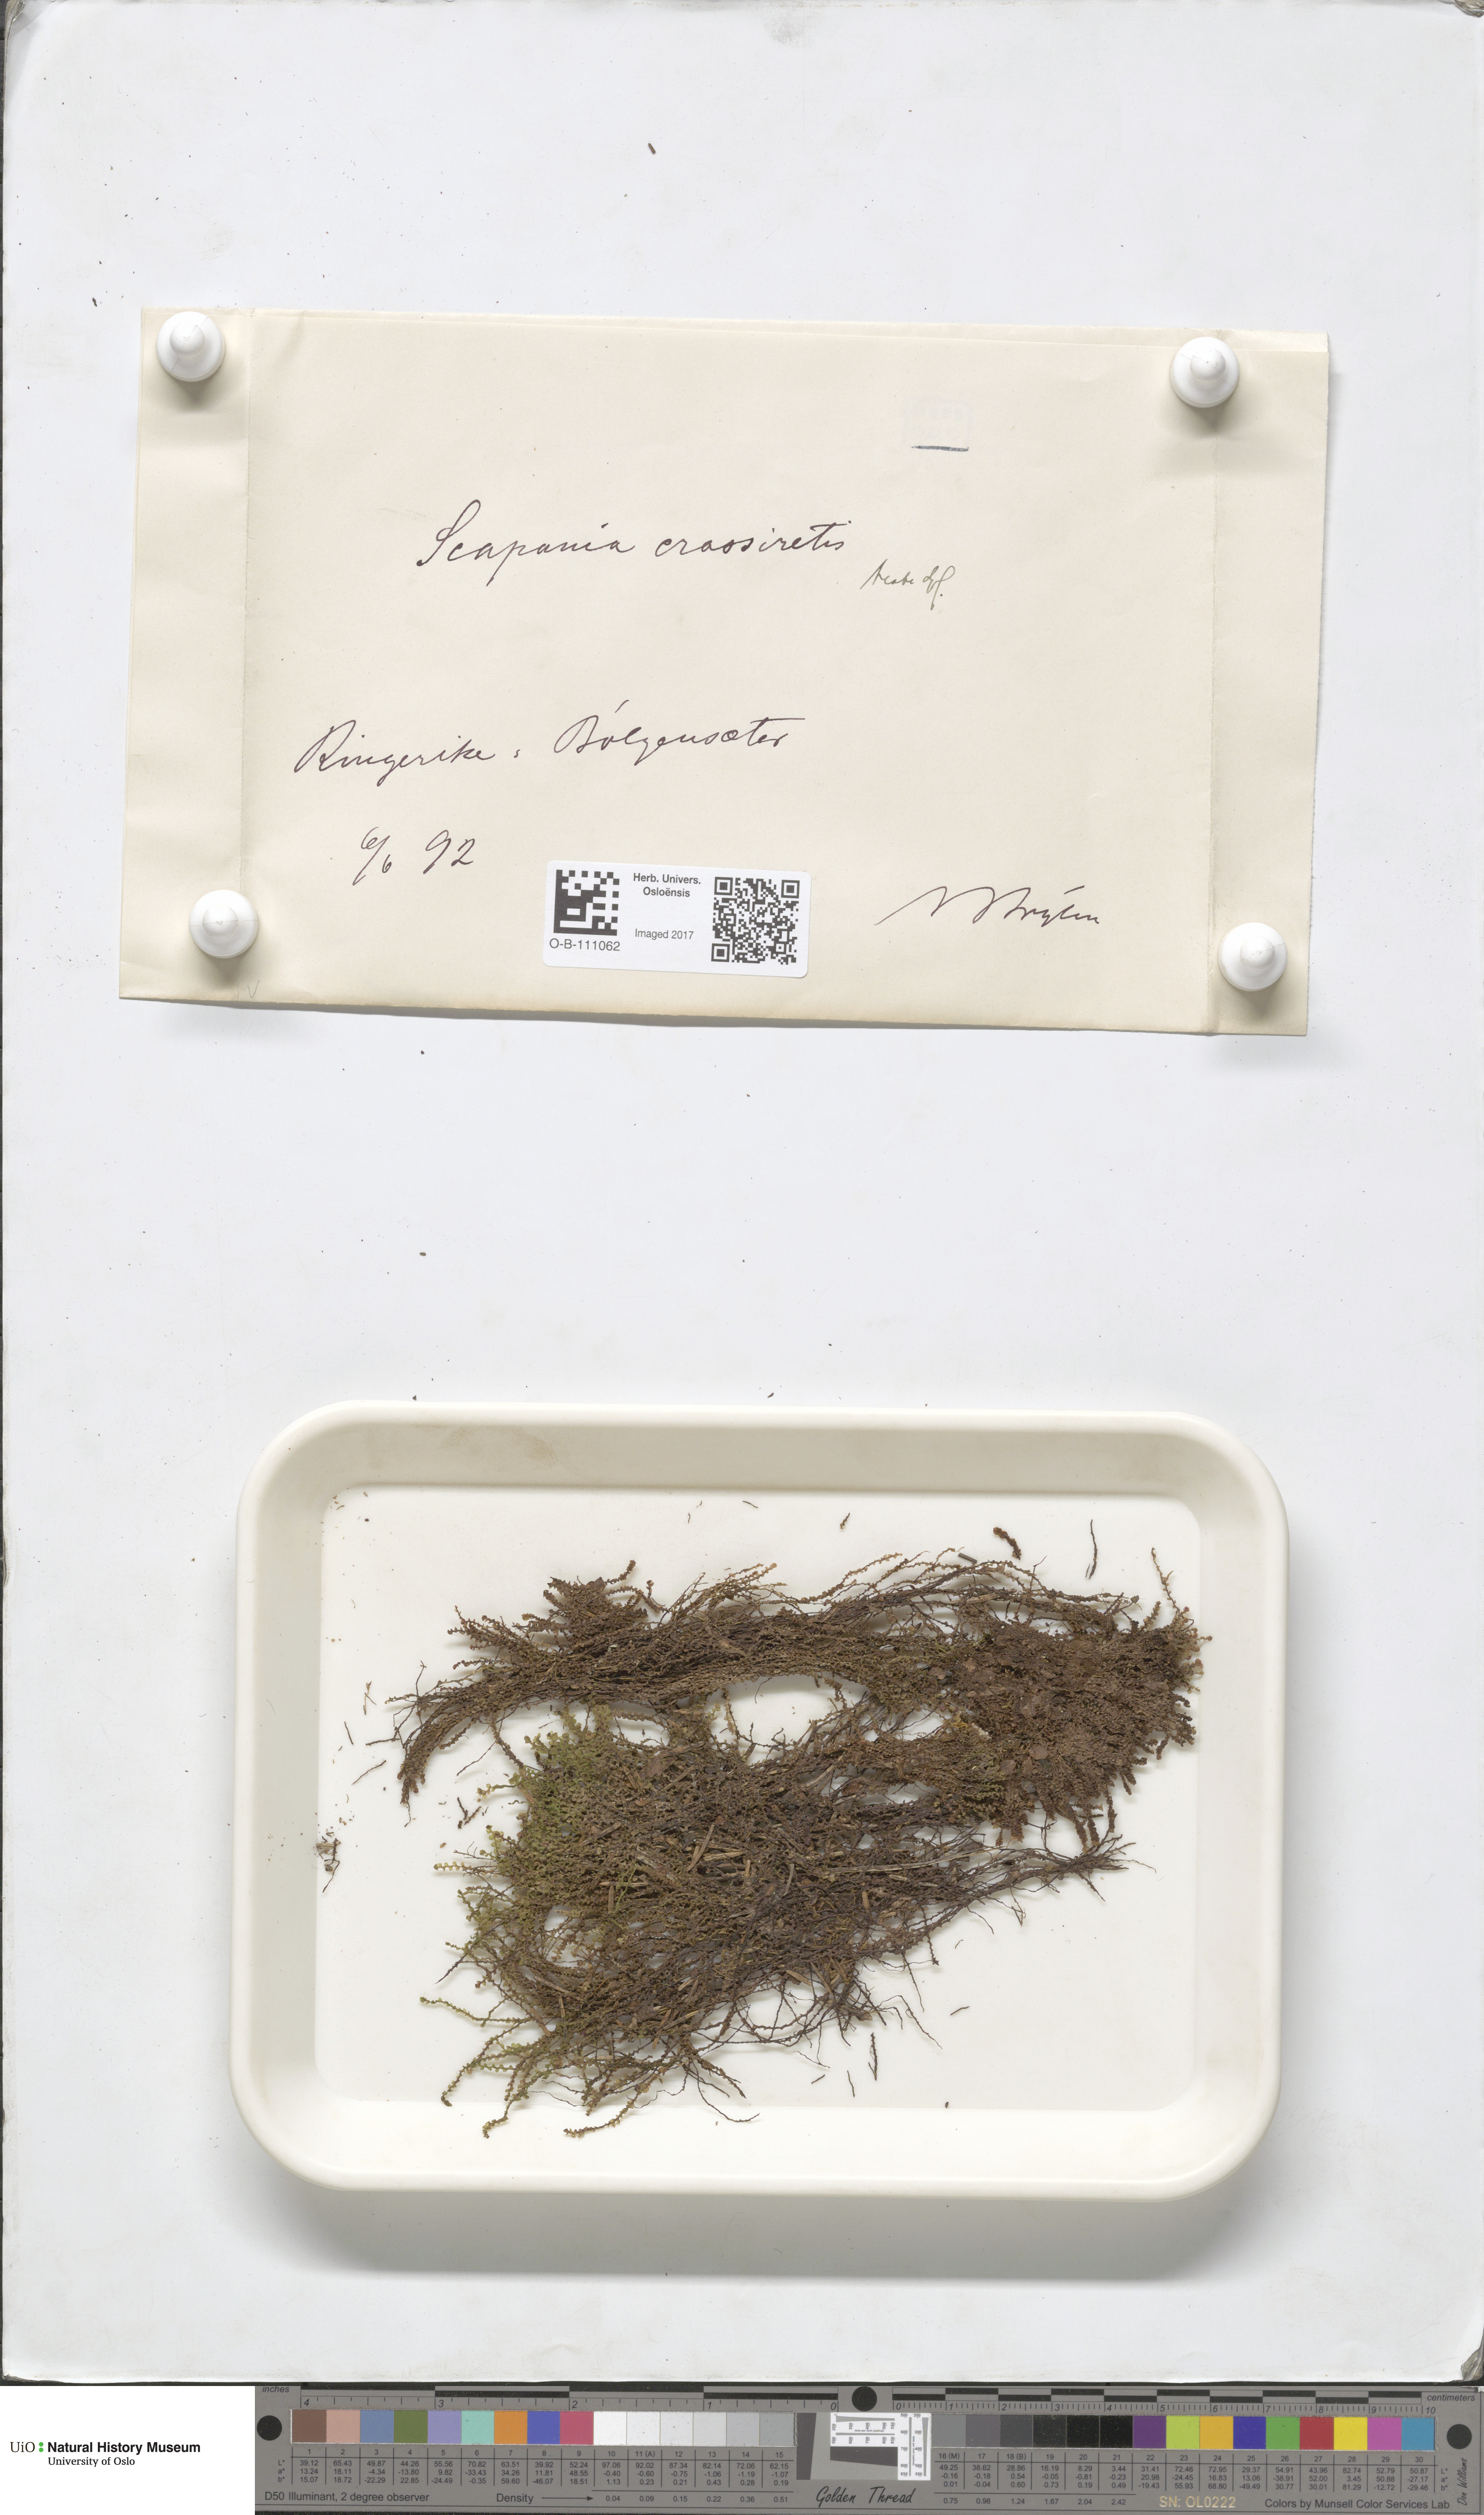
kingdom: Plantae
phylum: Marchantiophyta
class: Jungermanniopsida
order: Jungermanniales
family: Scapaniaceae
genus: Scapania
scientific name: Scapania crassiretis
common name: Knobby earwort
